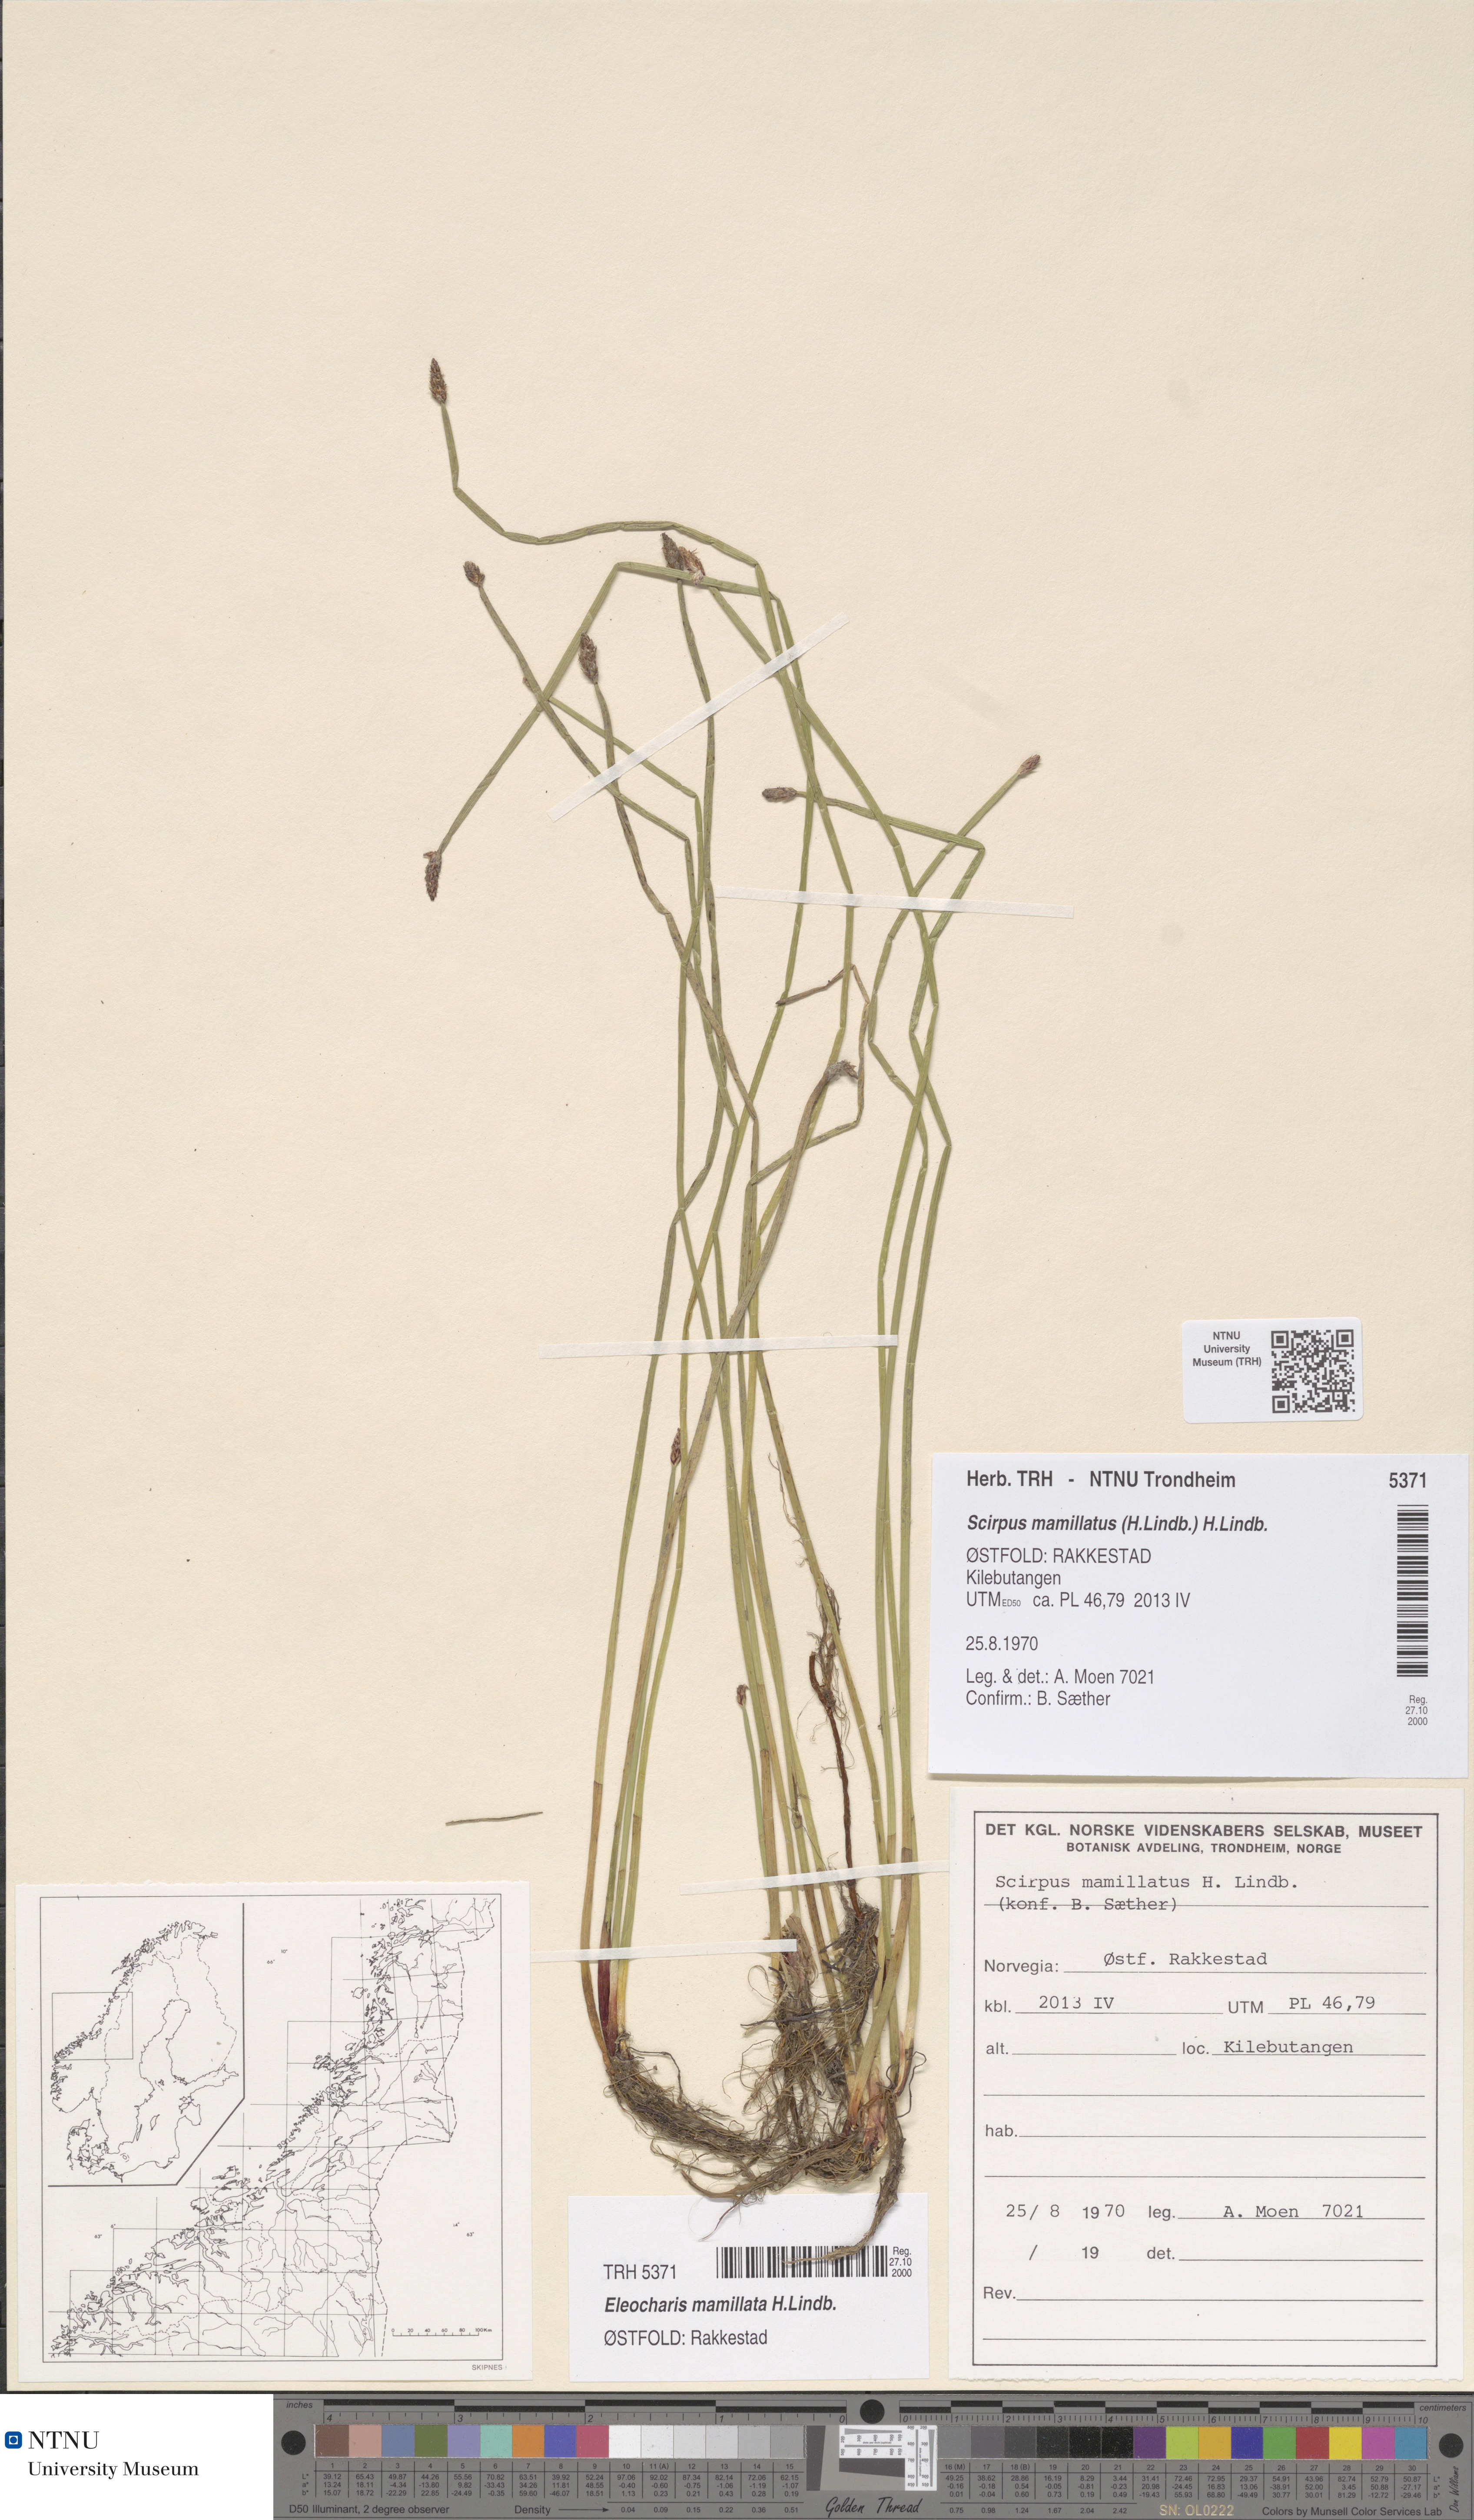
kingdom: Plantae
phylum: Tracheophyta
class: Liliopsida
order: Poales
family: Cyperaceae
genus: Eleocharis
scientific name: Eleocharis mamillata
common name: Northern spike-rush
